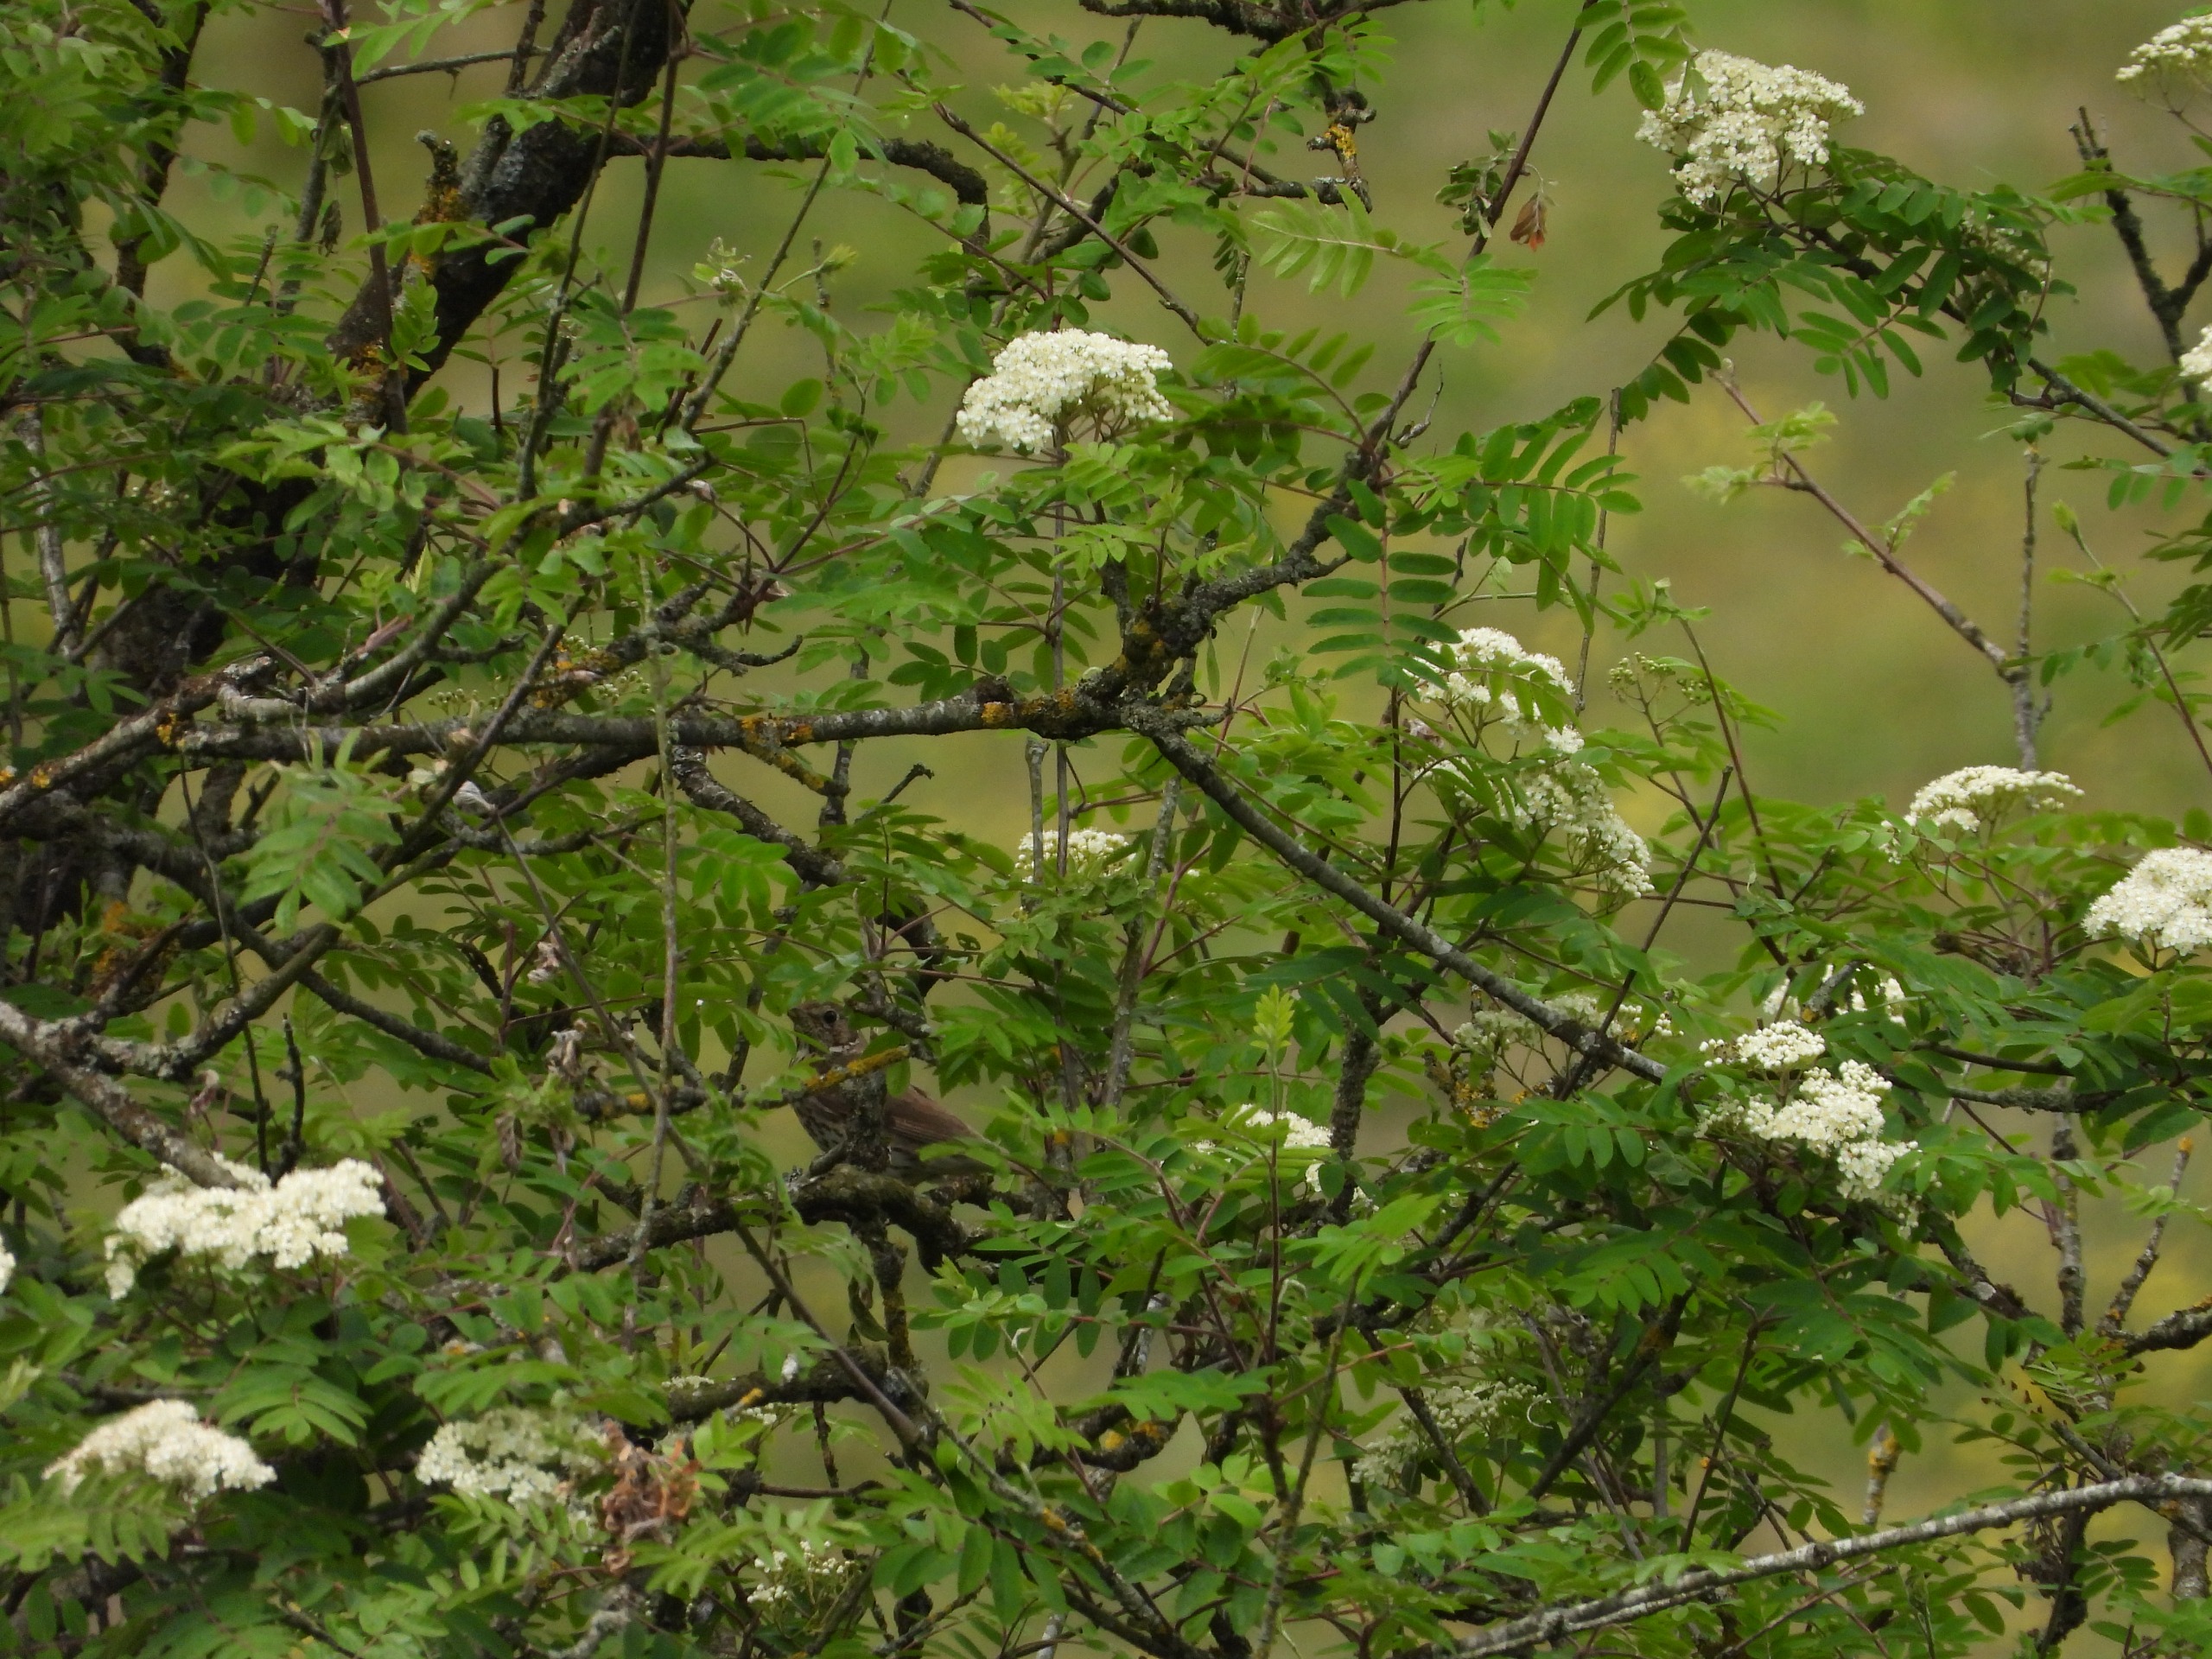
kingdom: Animalia
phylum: Chordata
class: Aves
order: Passeriformes
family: Turdidae
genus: Turdus
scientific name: Turdus philomelos
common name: Sangdrossel
